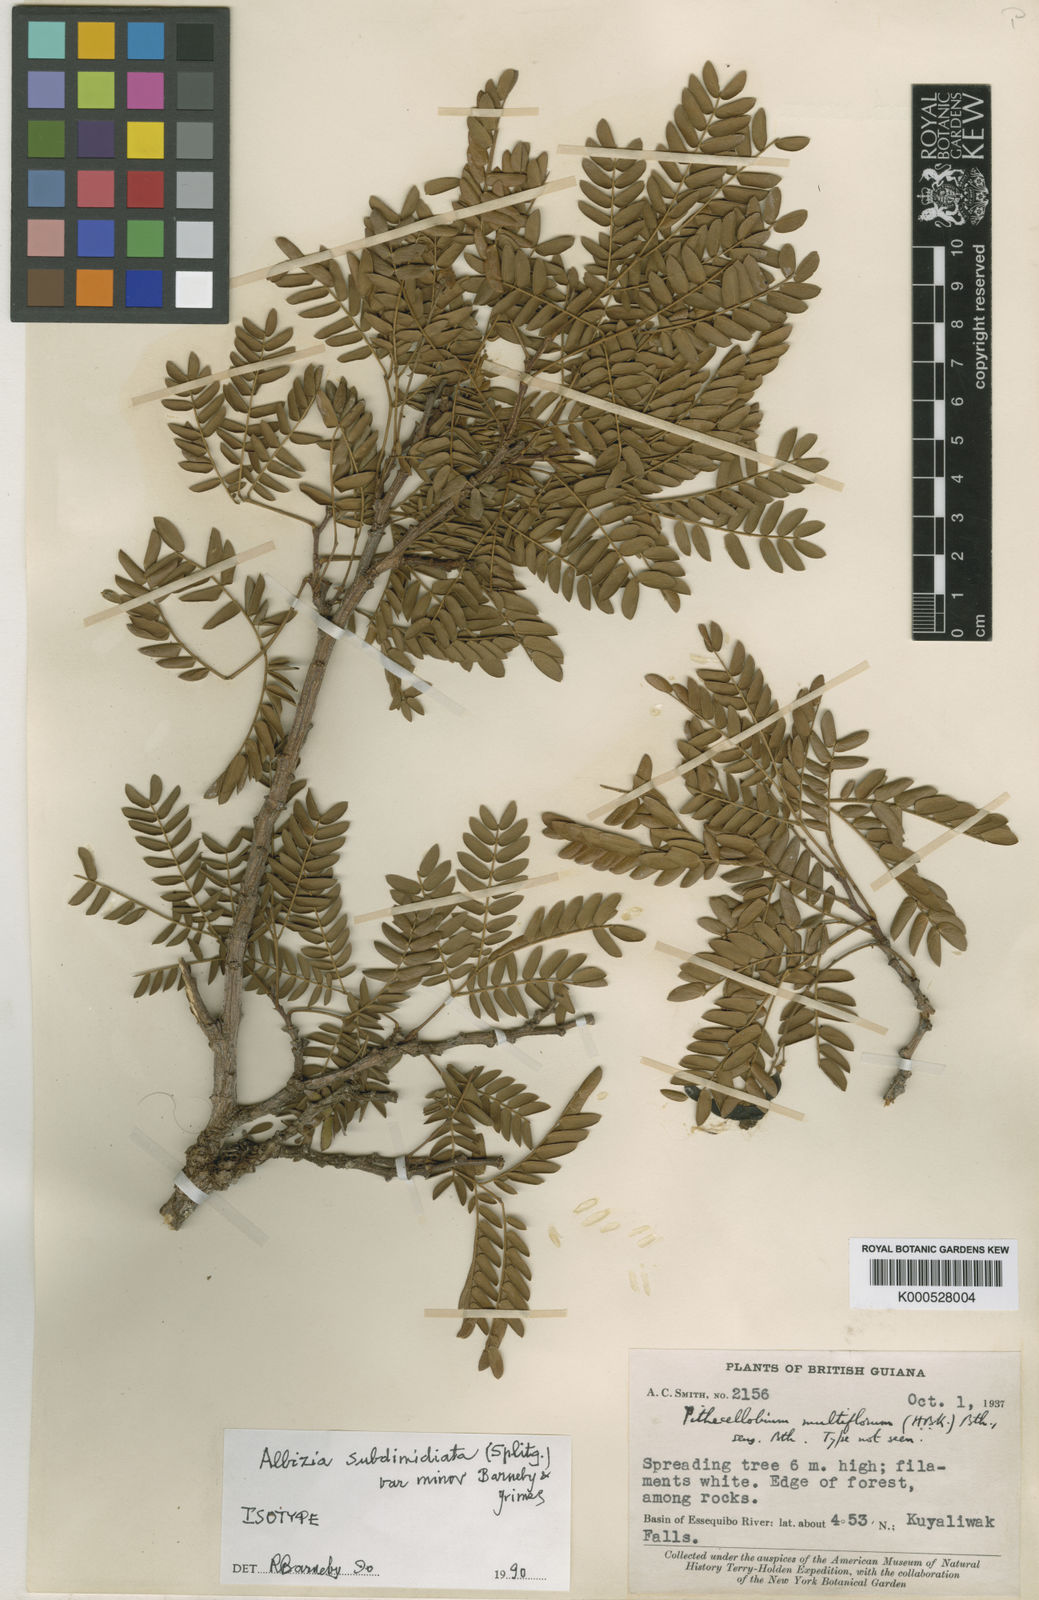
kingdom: Plantae
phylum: Tracheophyta
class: Magnoliopsida
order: Fabales
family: Fabaceae
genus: Albizia
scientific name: Albizia subdimidiata
